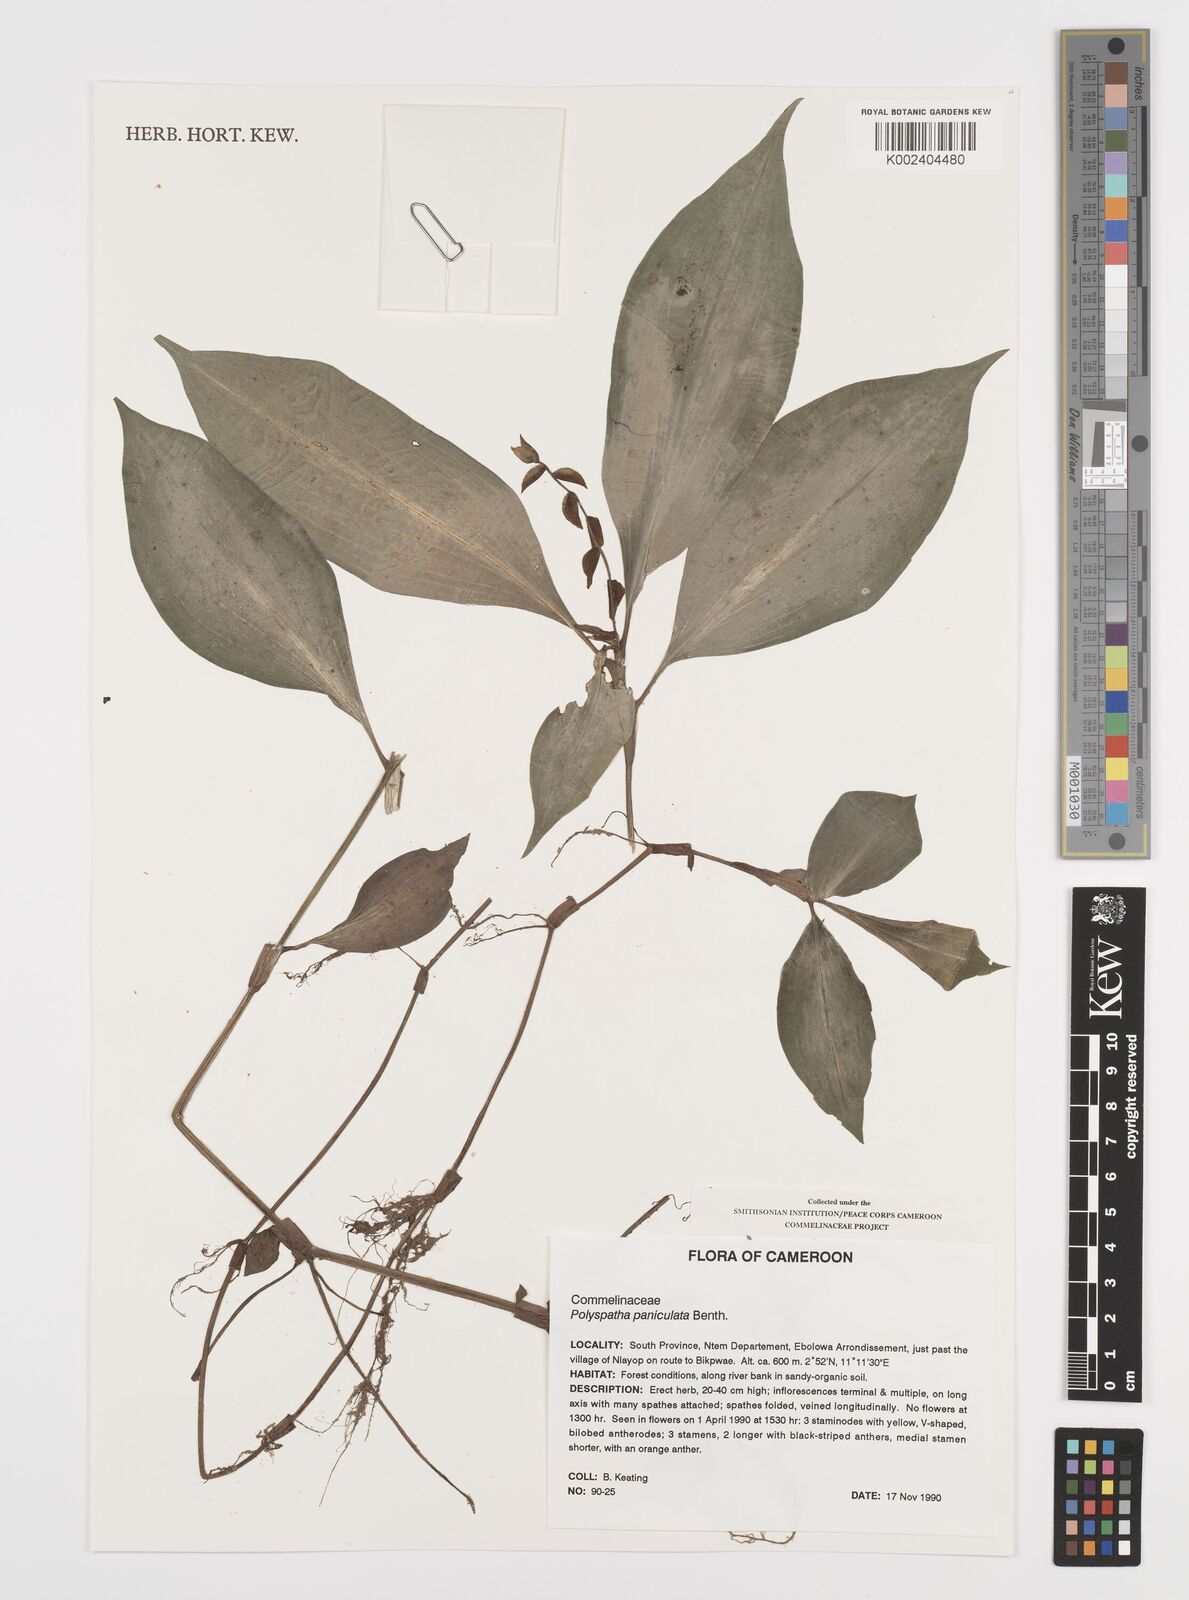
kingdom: Plantae
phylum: Tracheophyta
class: Liliopsida
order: Commelinales
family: Commelinaceae
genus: Polyspatha
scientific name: Polyspatha paniculata
